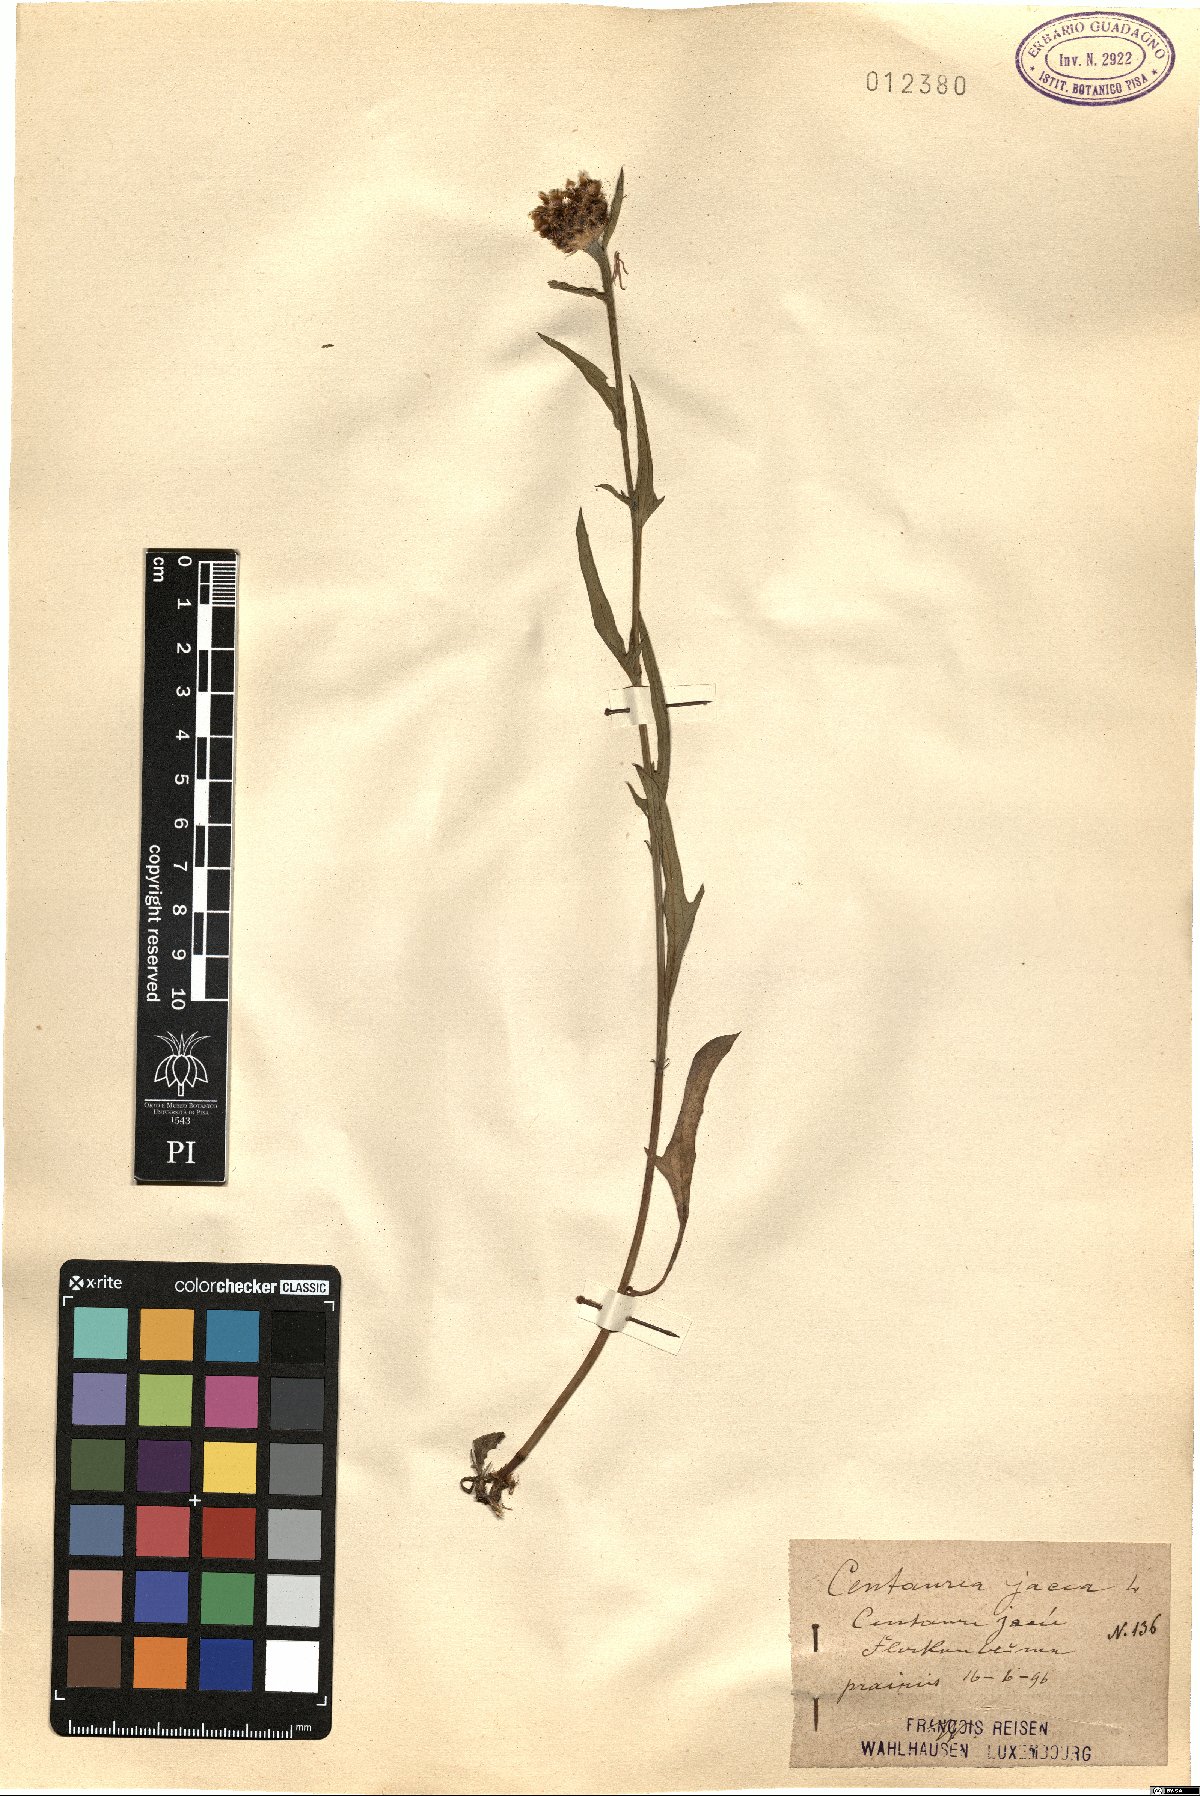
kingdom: Plantae
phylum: Tracheophyta
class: Magnoliopsida
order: Asterales
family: Asteraceae
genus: Centaurea
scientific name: Centaurea jacea
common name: Brown knapweed
